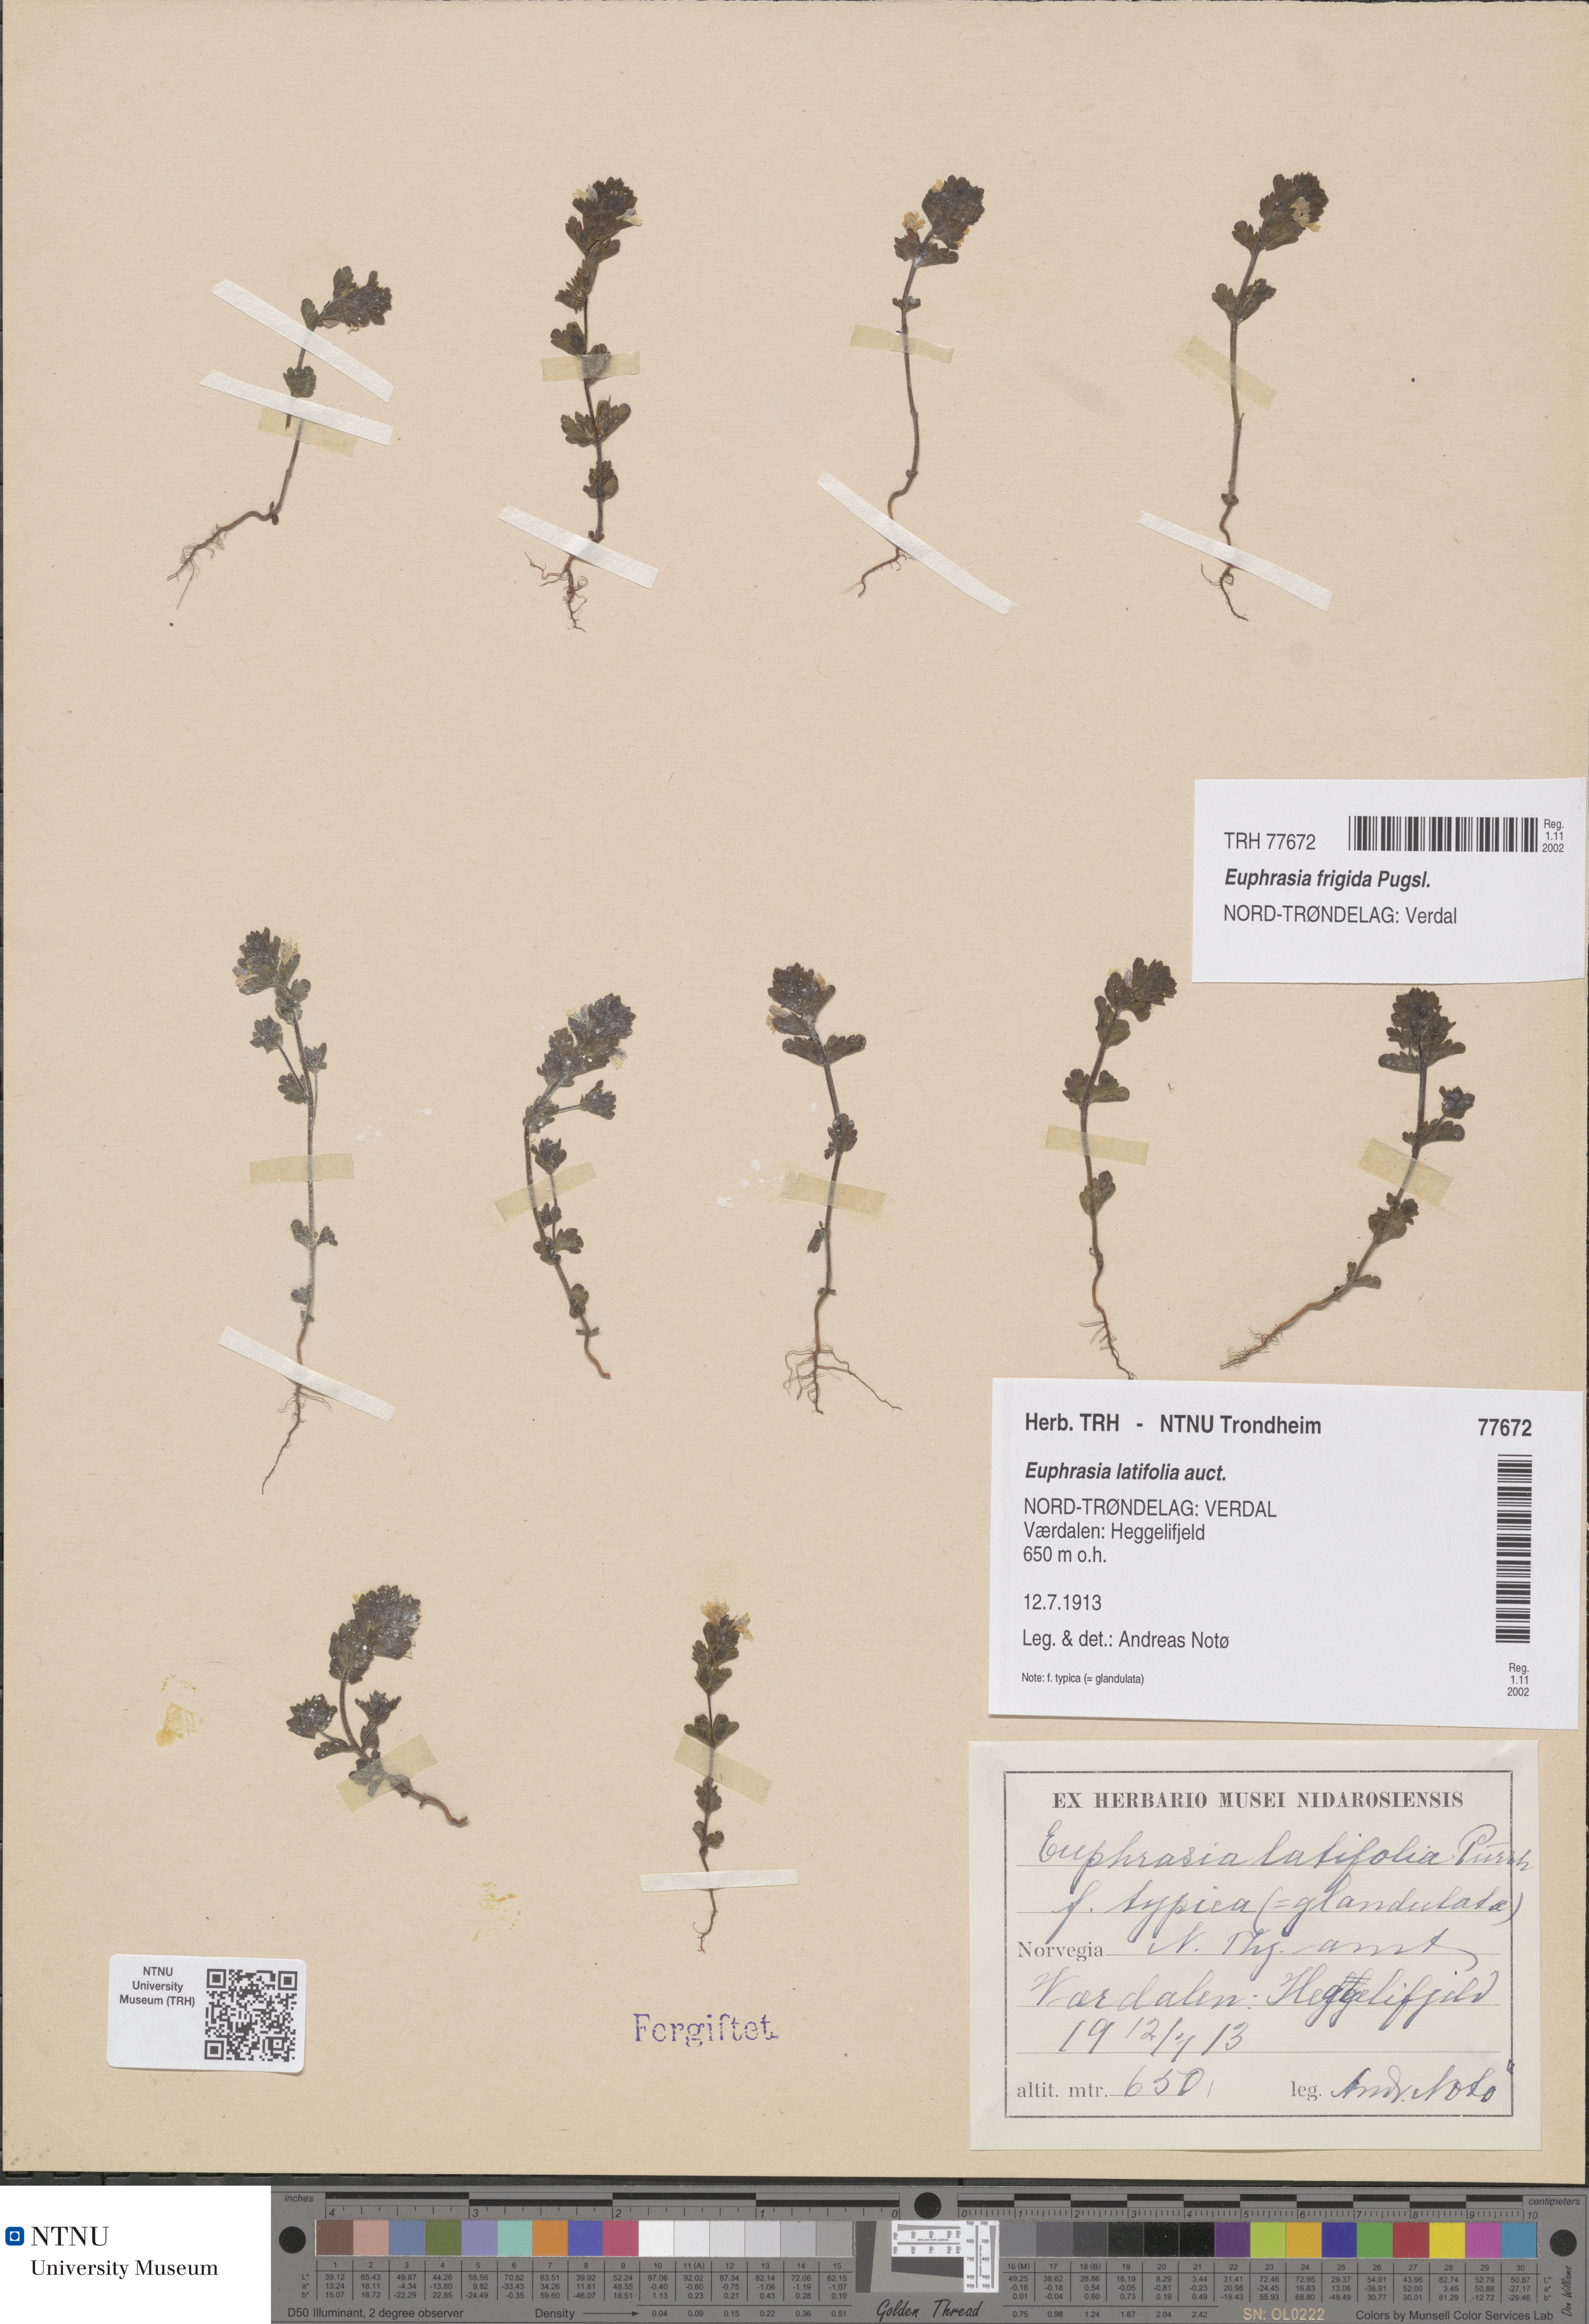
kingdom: Plantae
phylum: Tracheophyta
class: Magnoliopsida
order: Lamiales
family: Orobanchaceae
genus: Euphrasia
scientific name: Euphrasia wettsteinii
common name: Wettstein's eyebright
